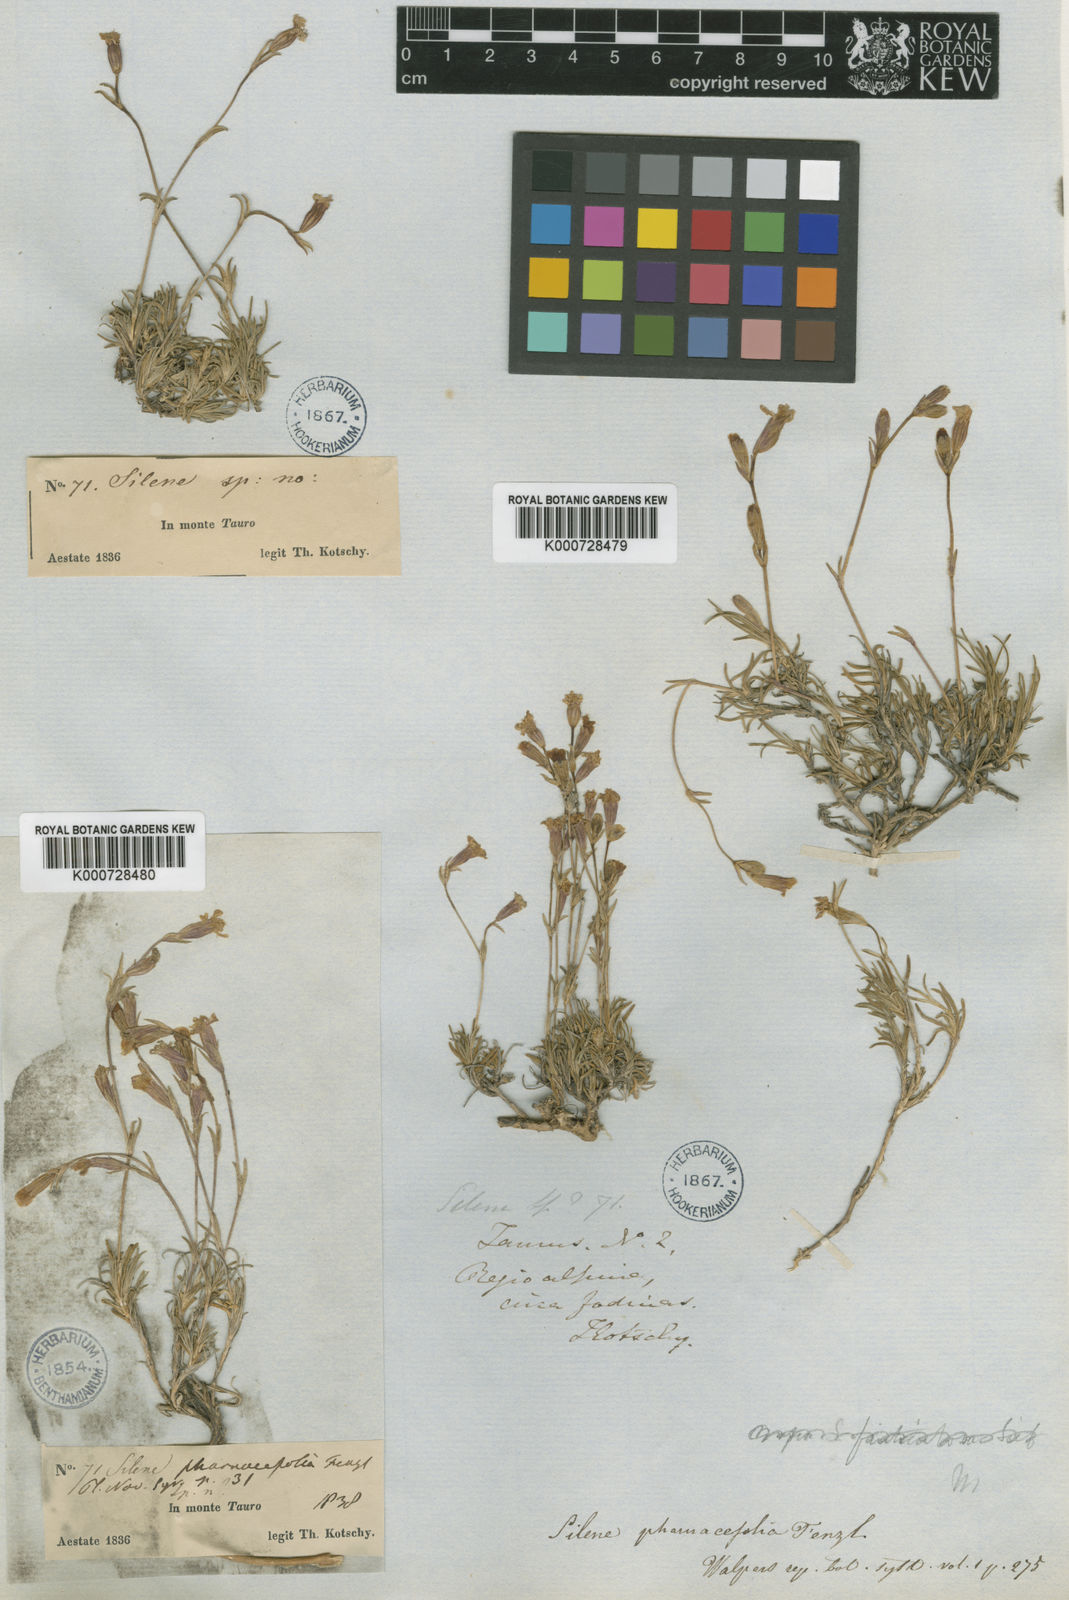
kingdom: Plantae
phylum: Tracheophyta
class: Magnoliopsida
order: Caryophyllales
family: Caryophyllaceae
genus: Silene
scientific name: Silene
